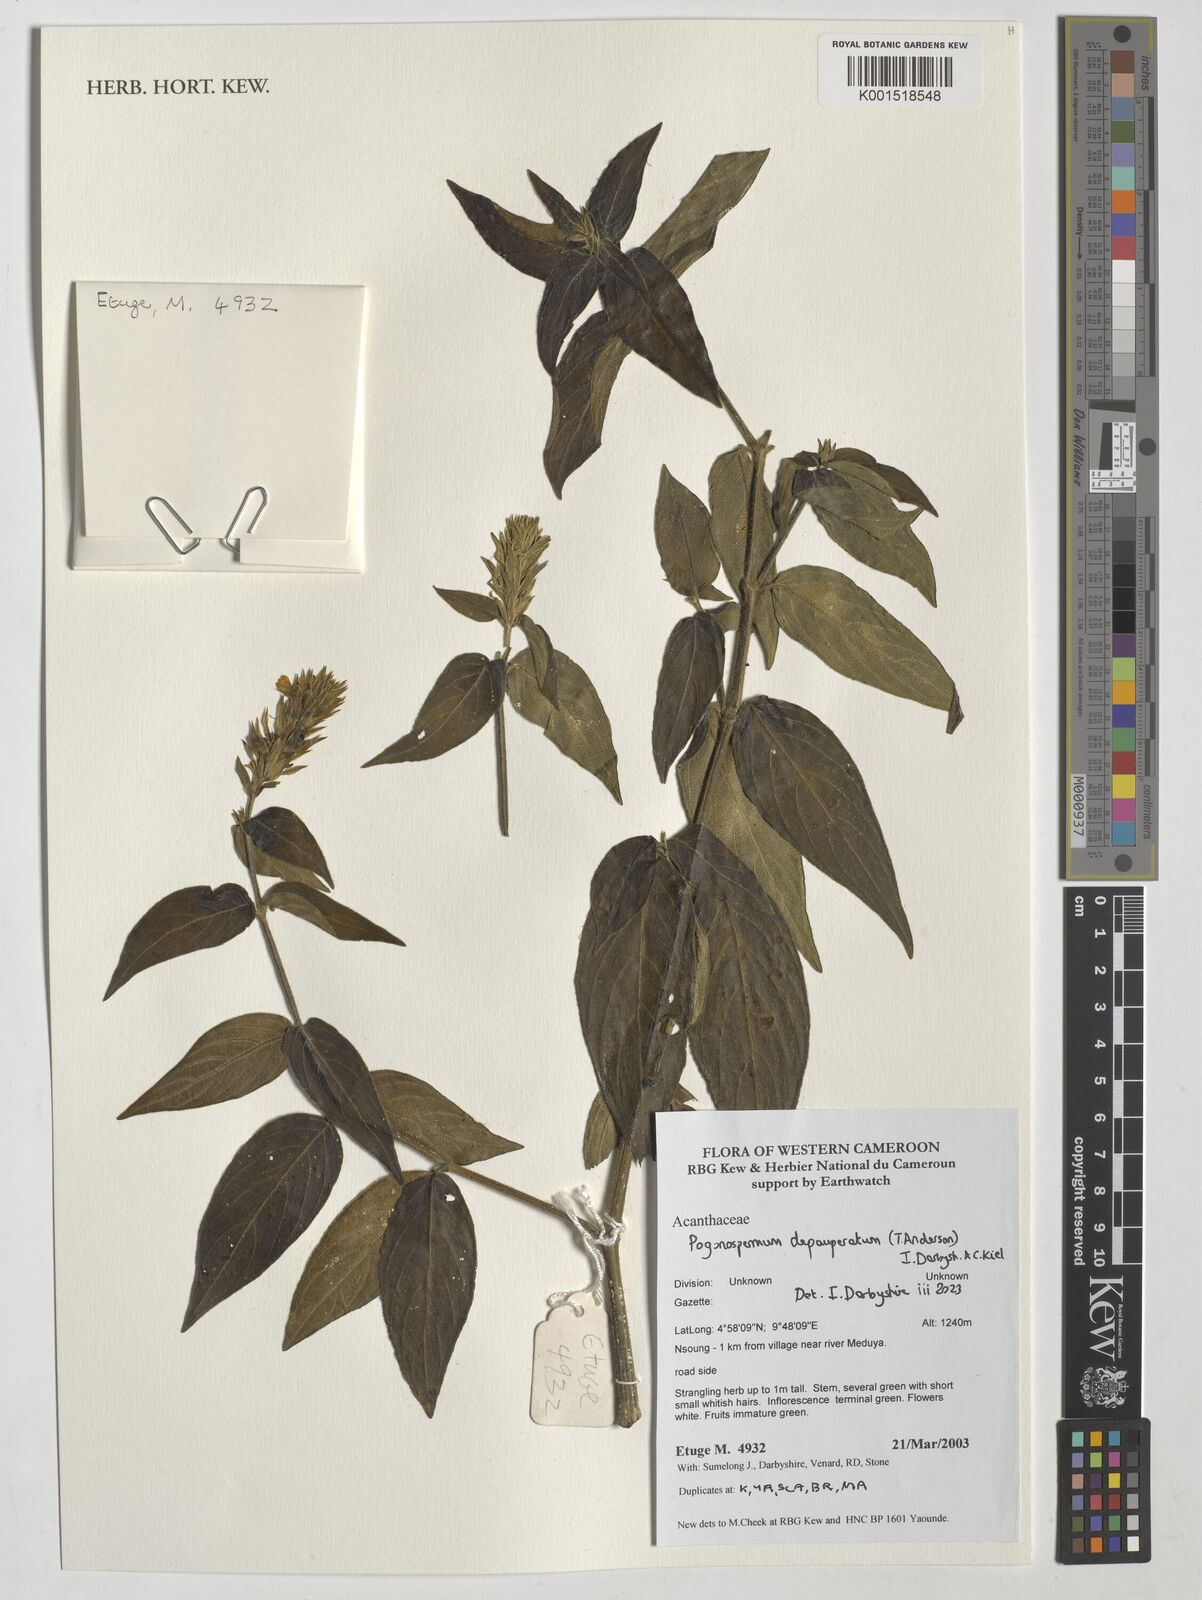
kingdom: Plantae
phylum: Tracheophyta
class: Magnoliopsida
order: Lamiales
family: Acanthaceae
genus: Pogonospermum
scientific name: Pogonospermum
